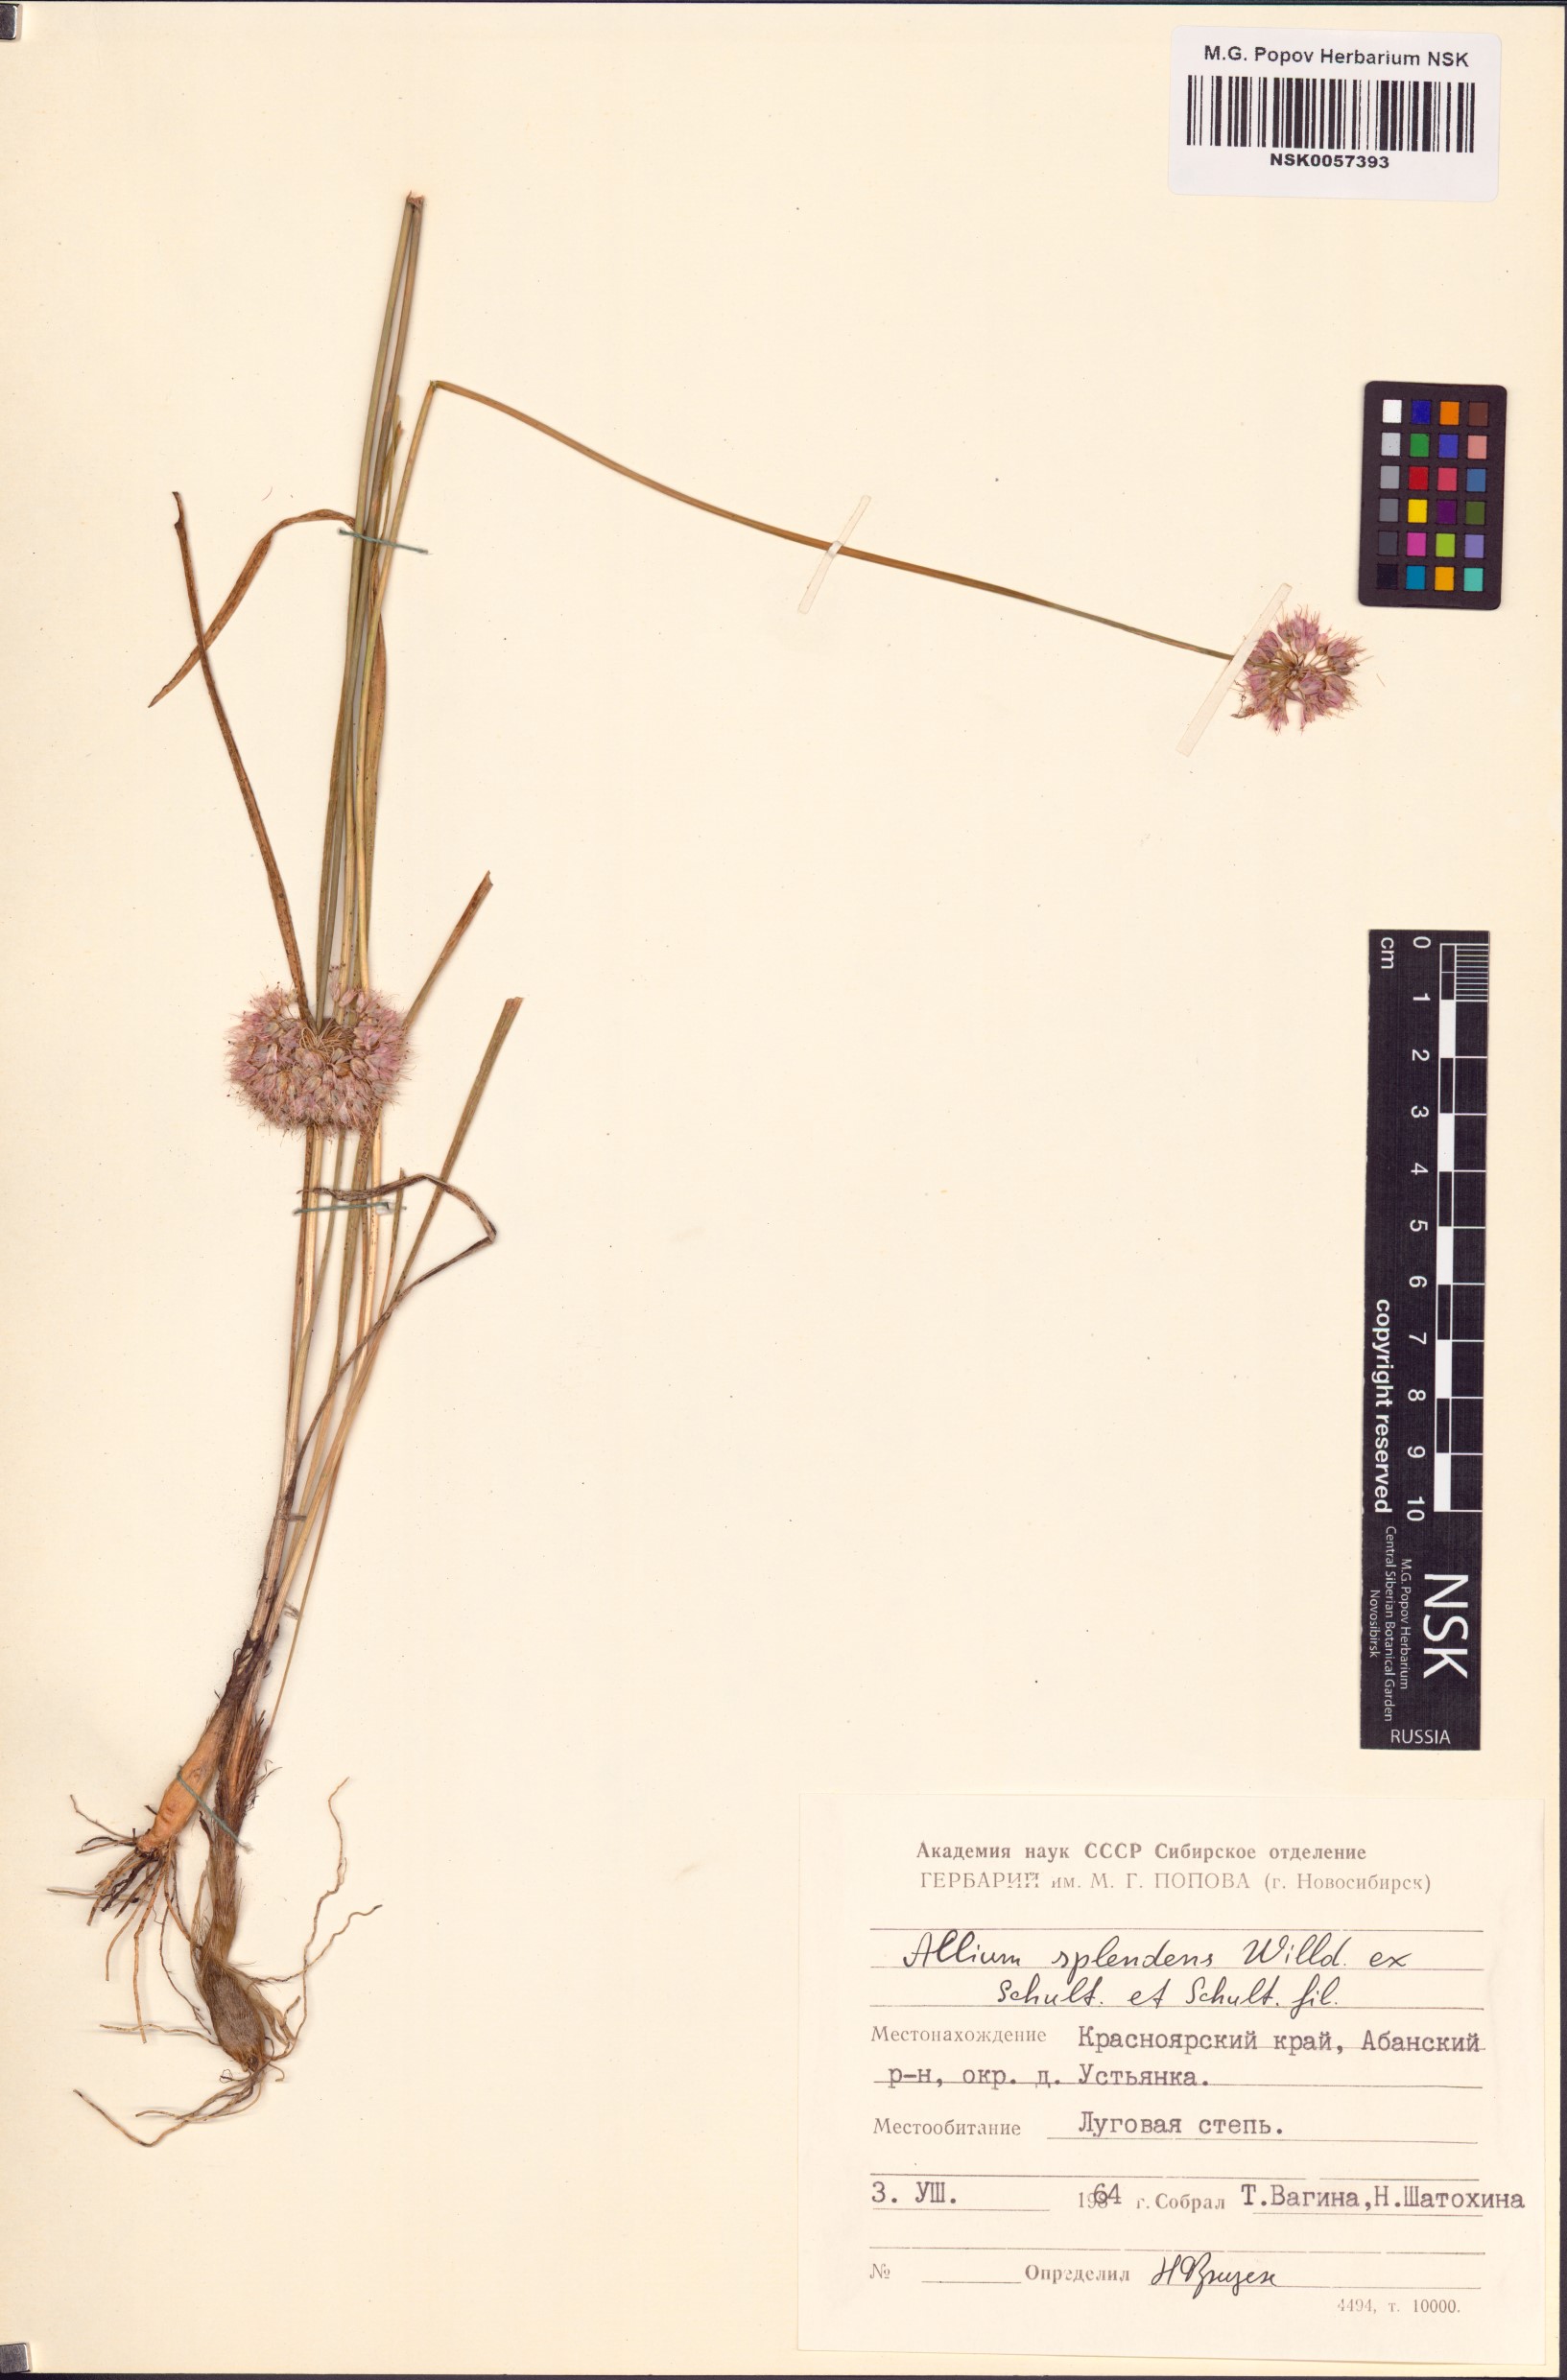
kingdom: Plantae
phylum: Tracheophyta
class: Liliopsida
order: Asparagales
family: Amaryllidaceae
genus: Allium
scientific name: Allium splendens
